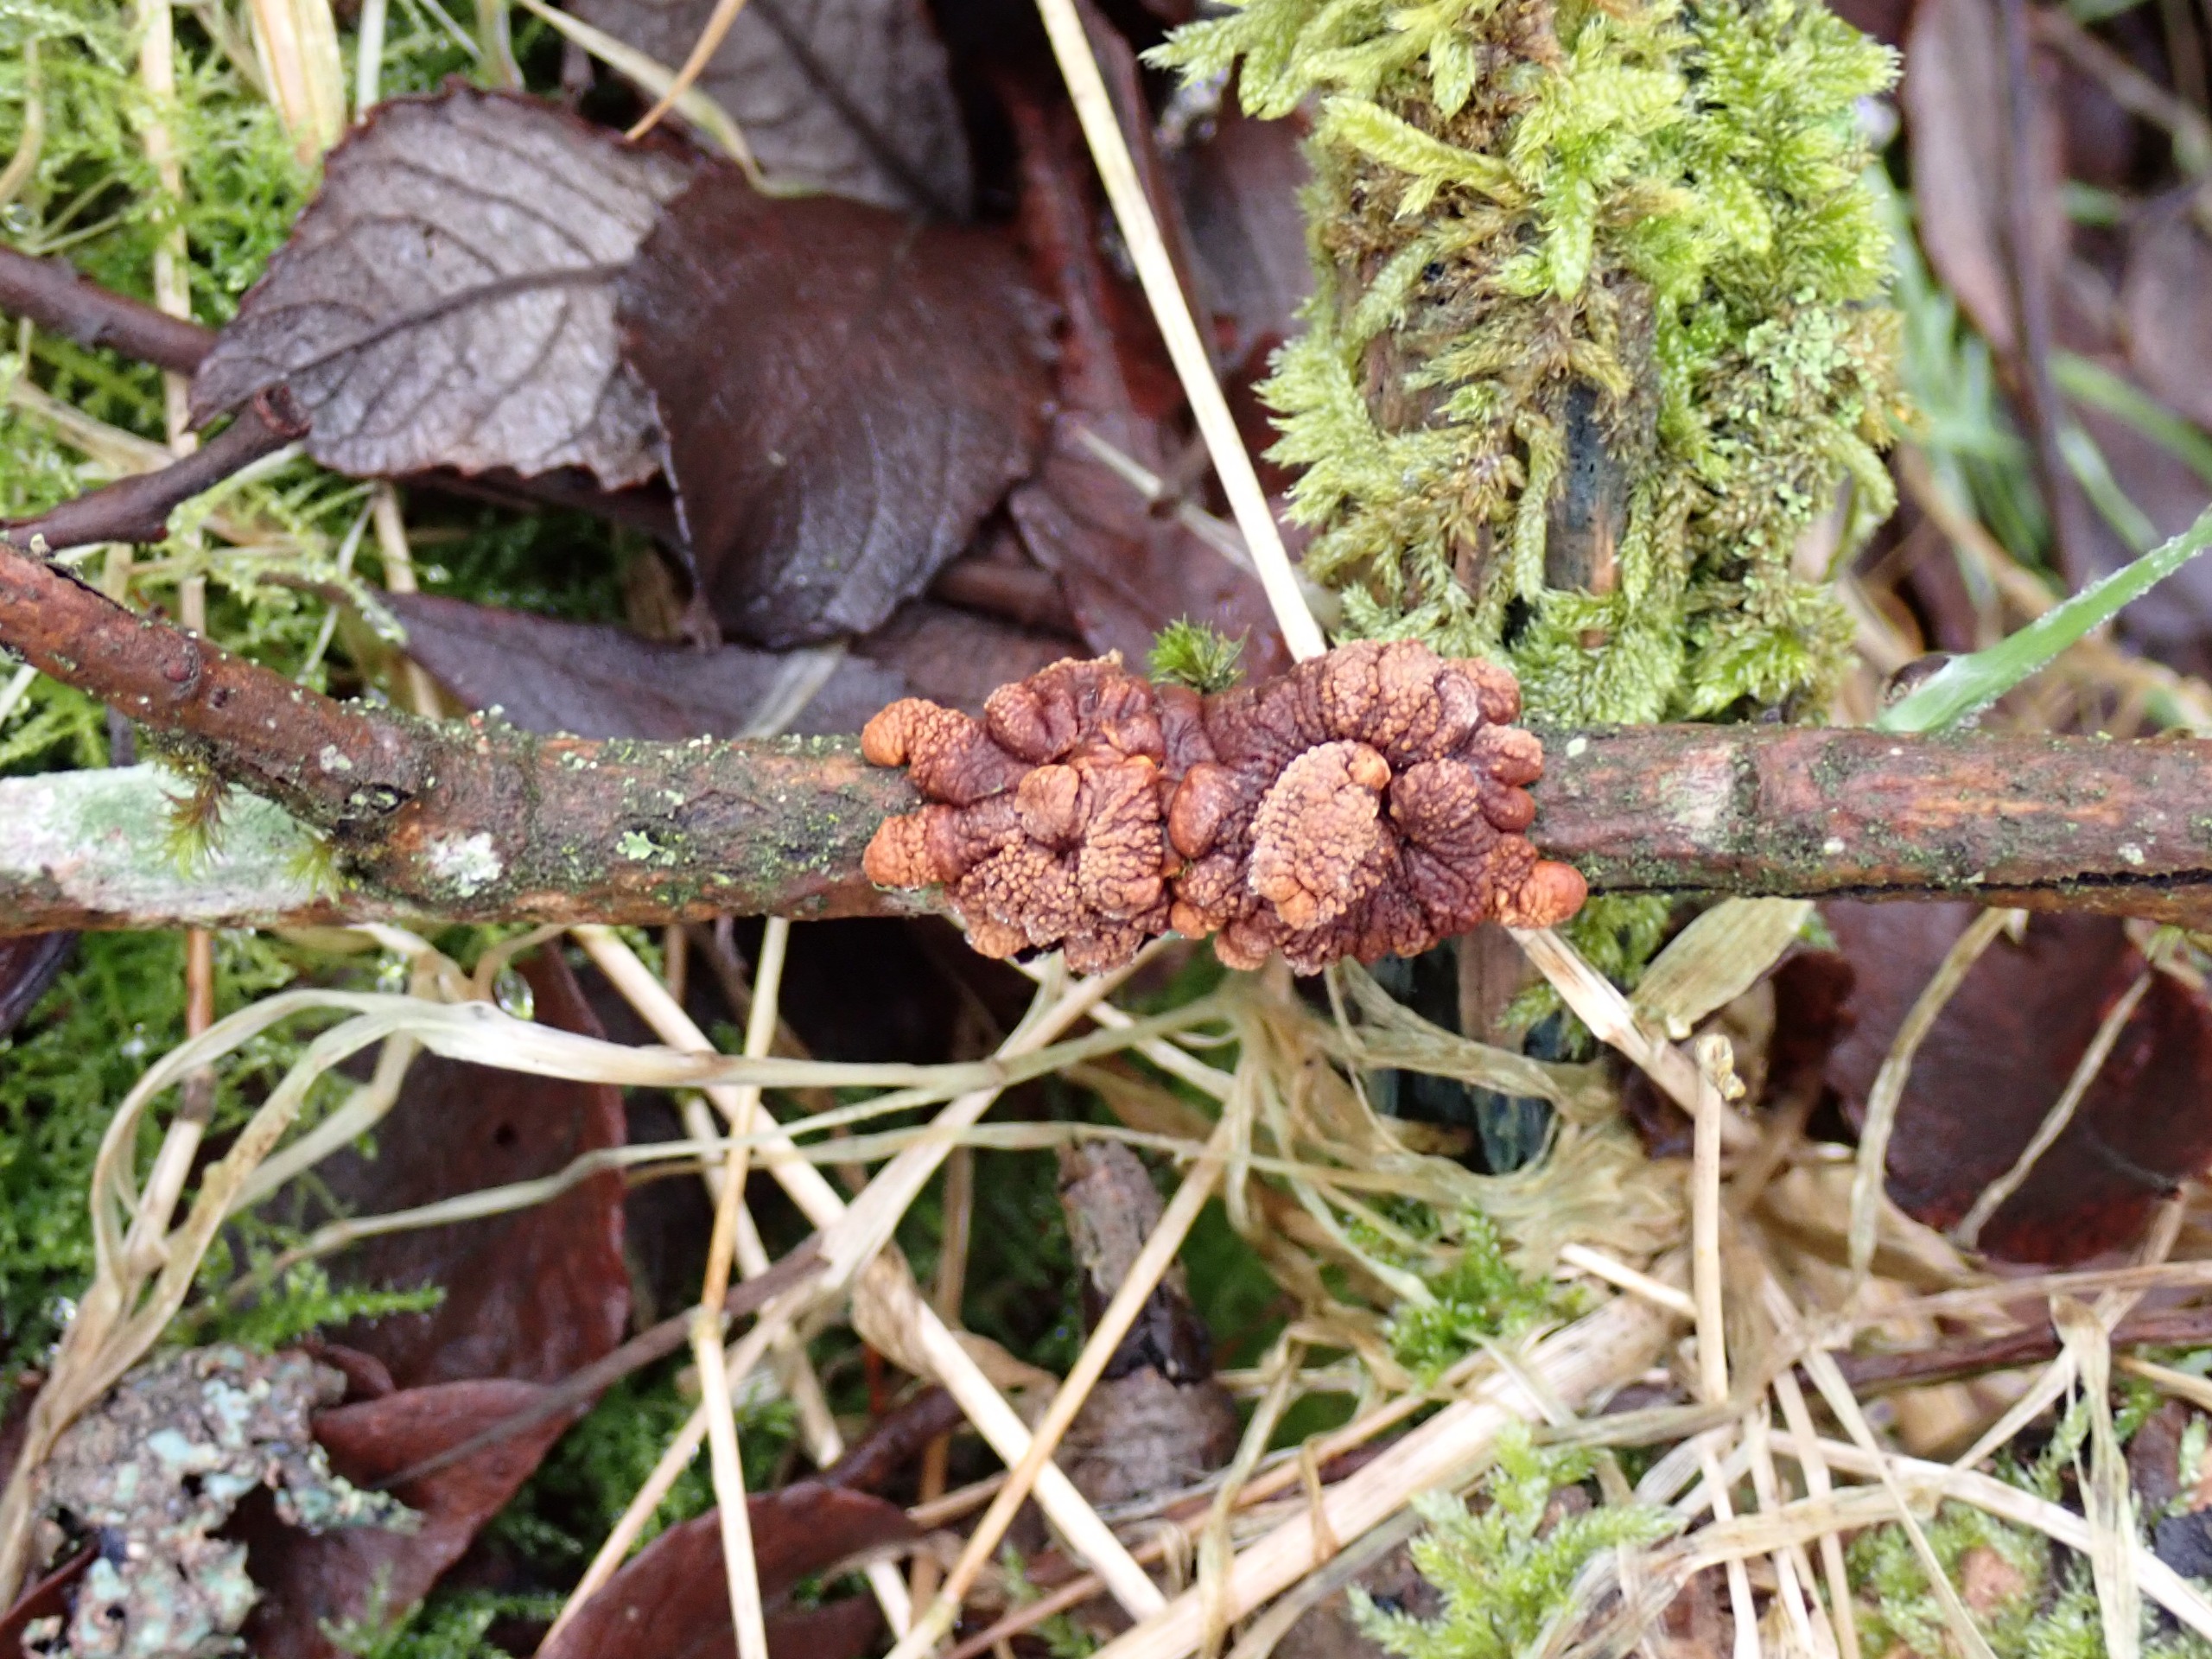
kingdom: Fungi
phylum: Ascomycota
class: Sordariomycetes
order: Hypocreales
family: Hypocreaceae
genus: Hypocreopsis
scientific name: Hypocreopsis lichenoides
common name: Pilfinger
